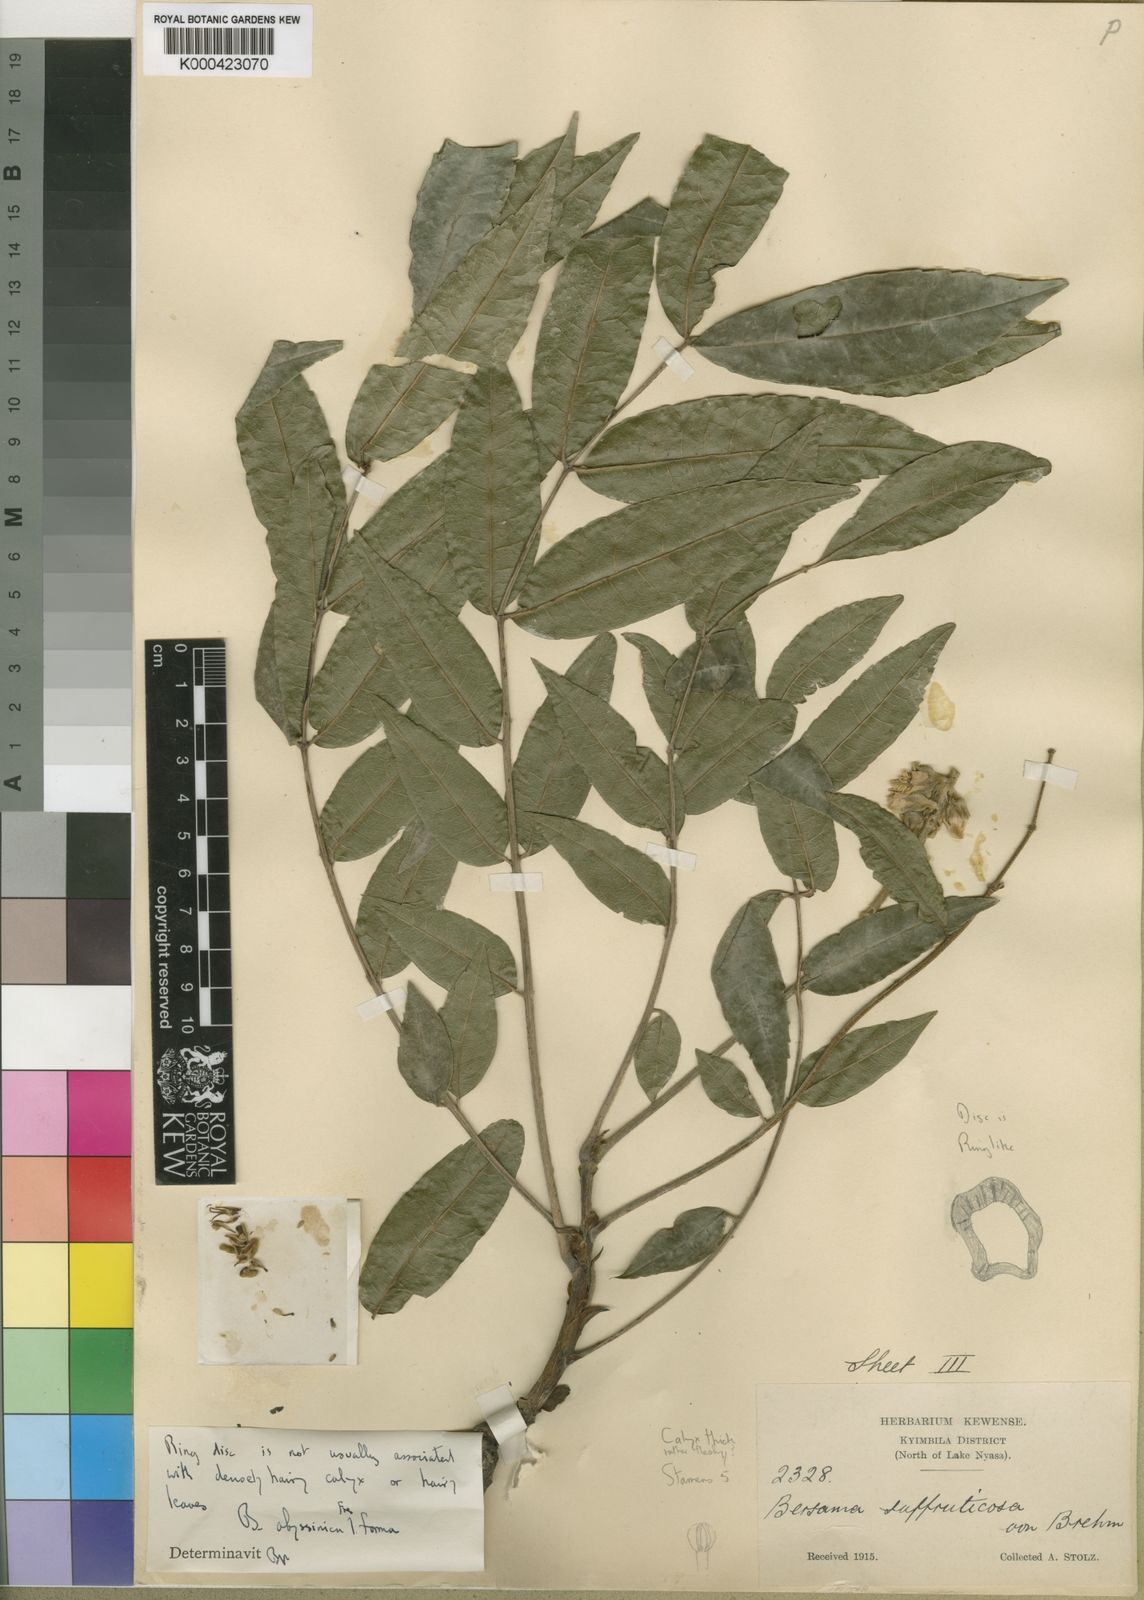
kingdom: Plantae
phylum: Tracheophyta
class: Magnoliopsida
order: Geraniales
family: Melianthaceae
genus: Bersama
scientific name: Bersama abyssinica
